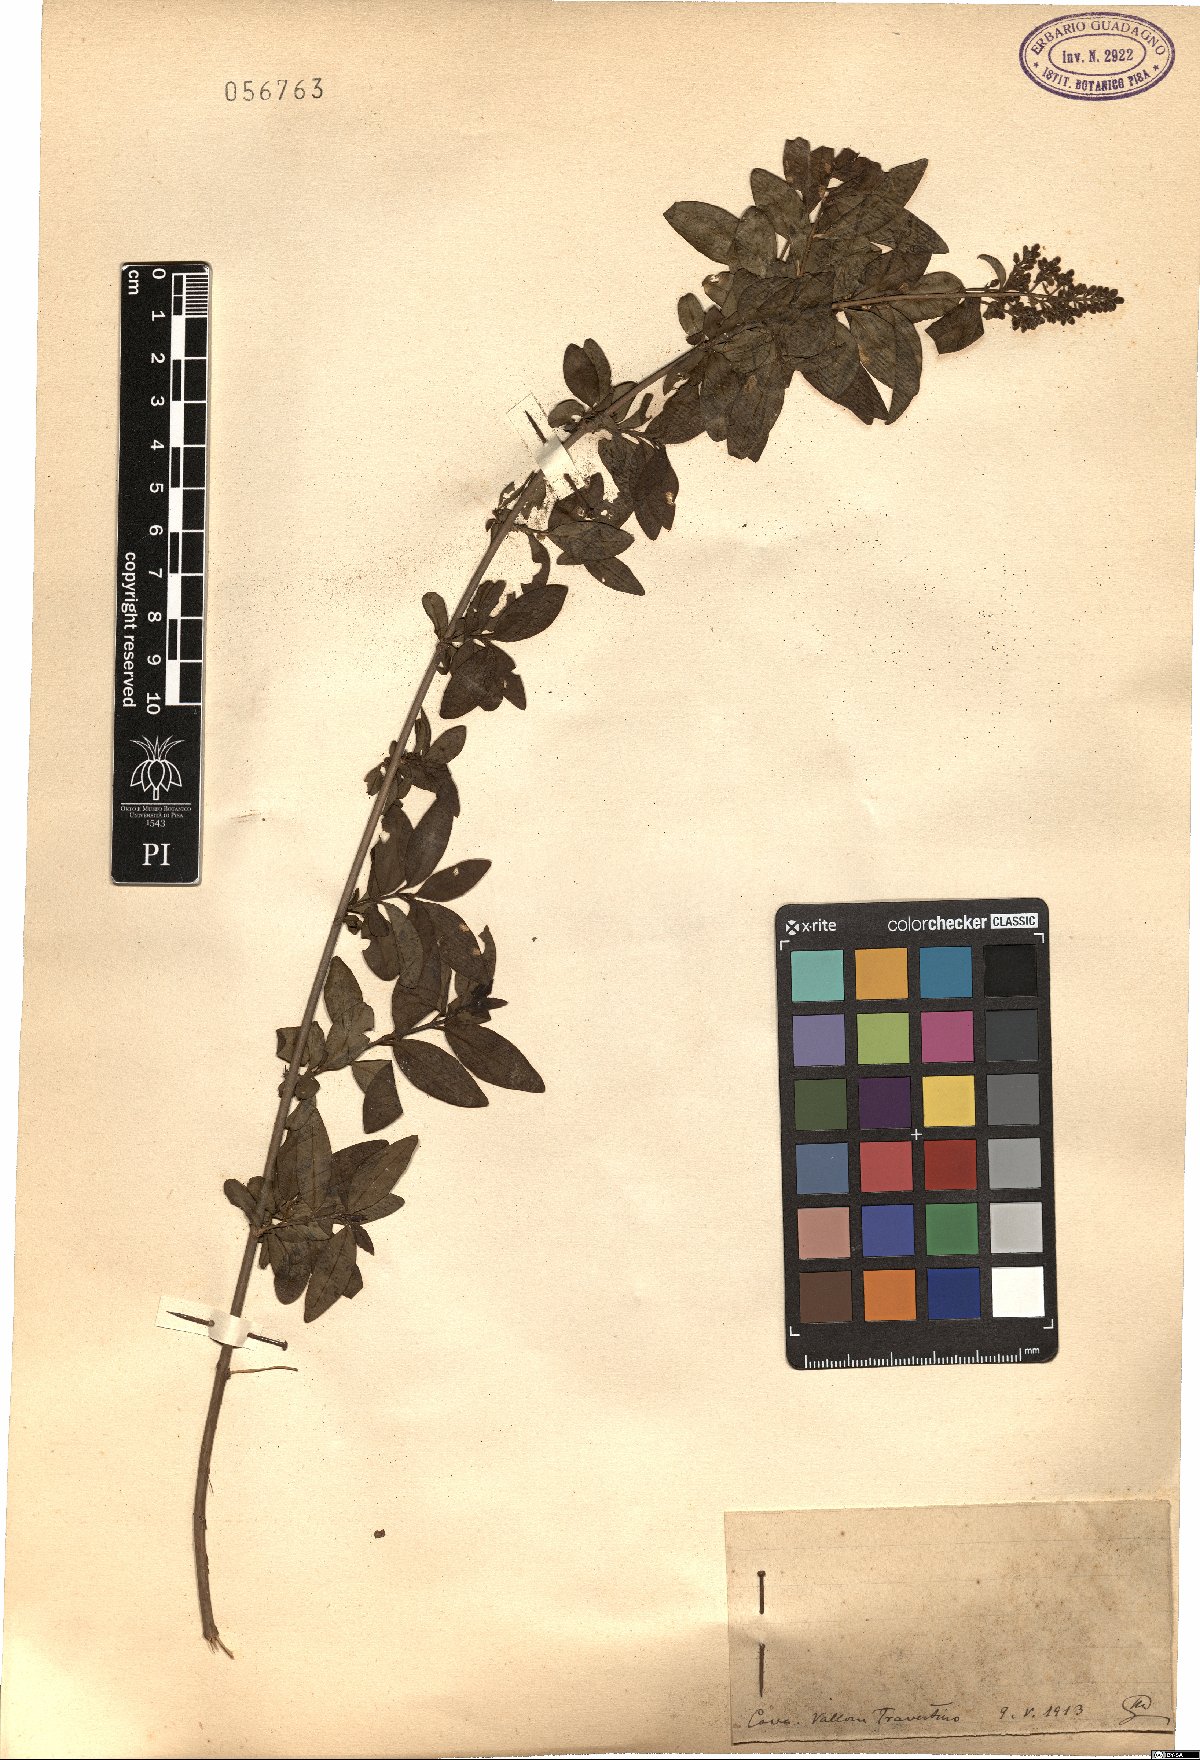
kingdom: Plantae
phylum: Tracheophyta
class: Magnoliopsida
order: Lamiales
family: Oleaceae
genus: Ligustrum
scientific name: Ligustrum
